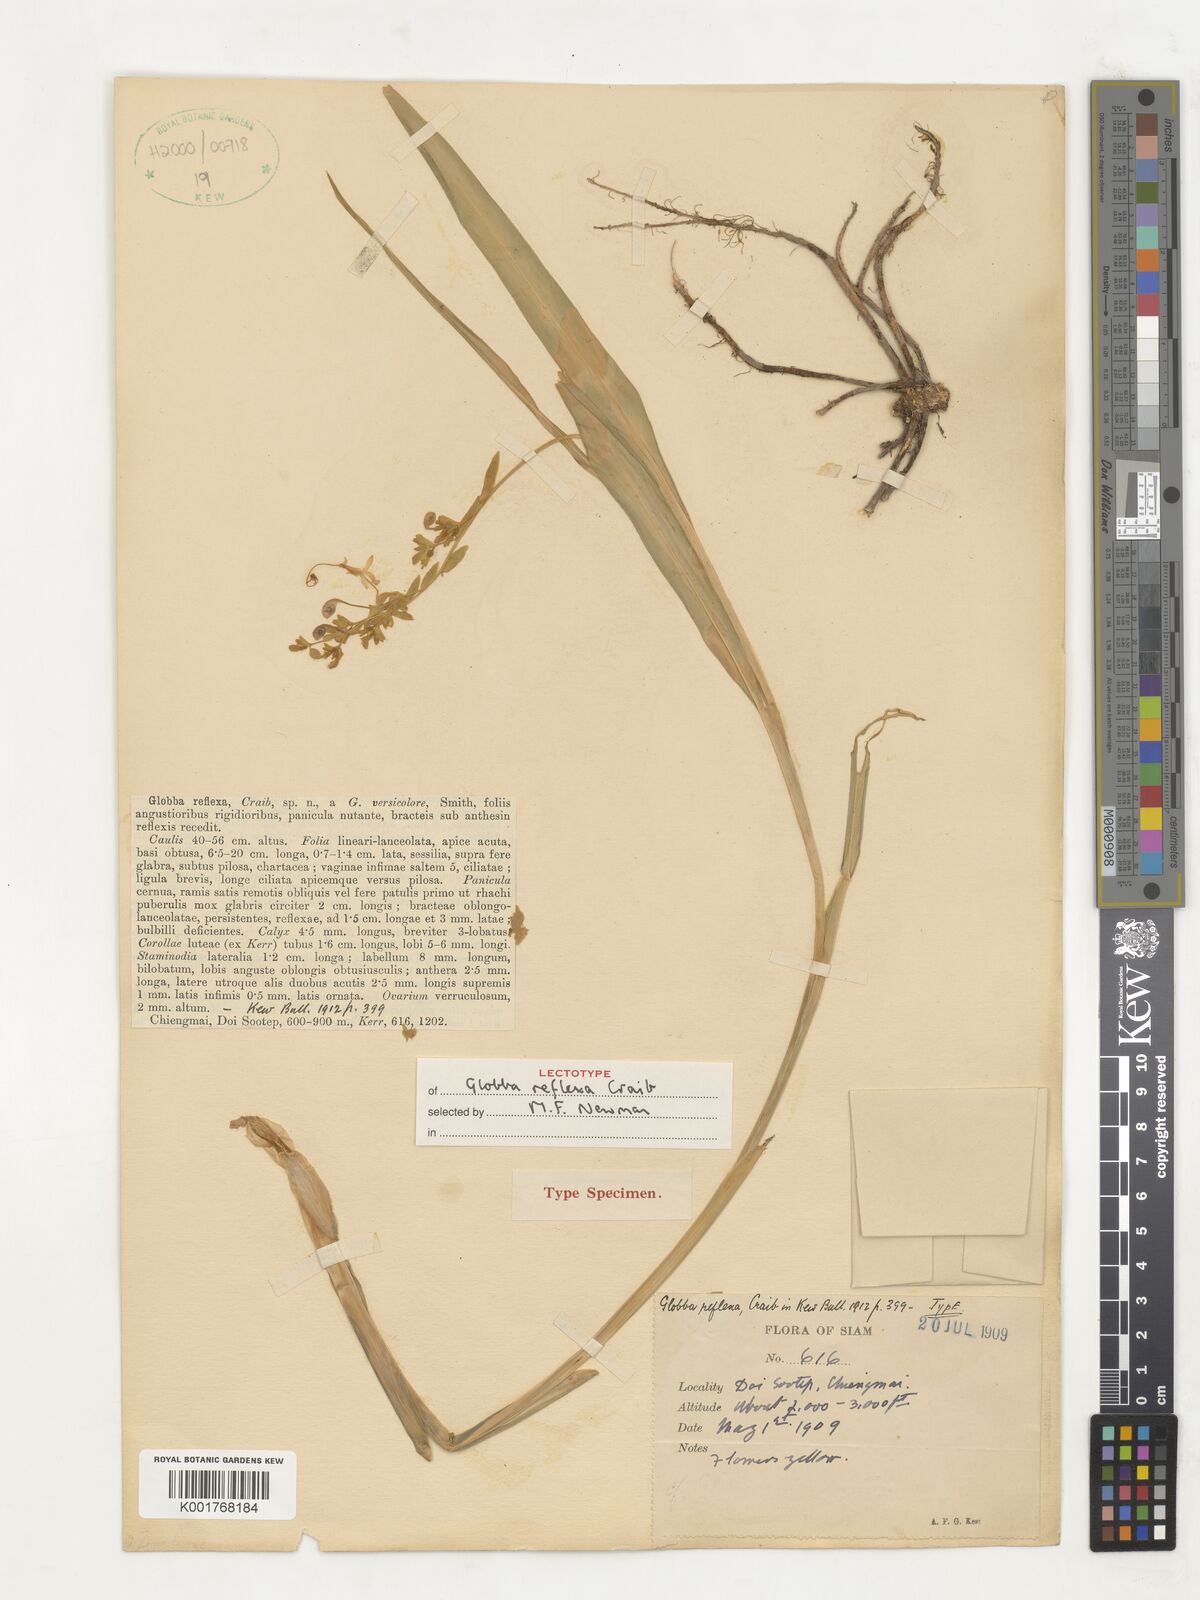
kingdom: Plantae
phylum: Tracheophyta
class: Liliopsida
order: Zingiberales
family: Zingiberaceae
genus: Globba
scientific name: Globba reflexa
